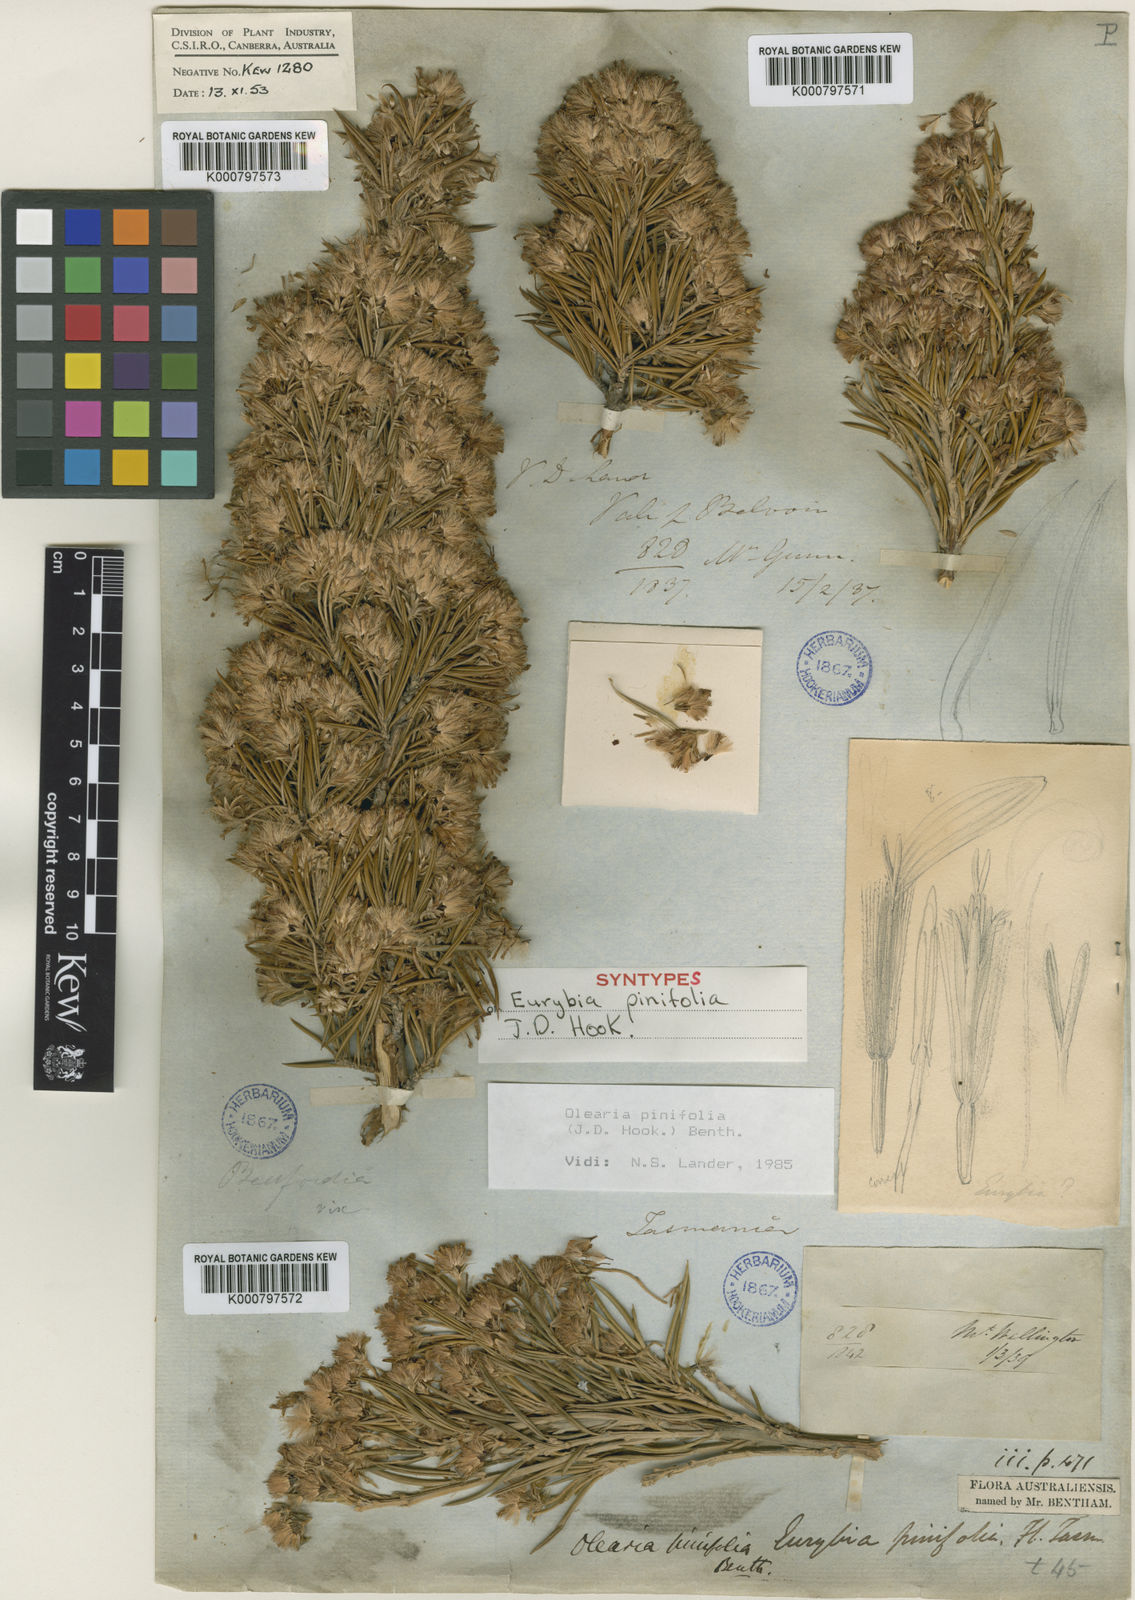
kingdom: Plantae
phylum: Tracheophyta
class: Magnoliopsida
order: Asterales
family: Asteraceae
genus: Olearia
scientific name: Olearia pinifolia
